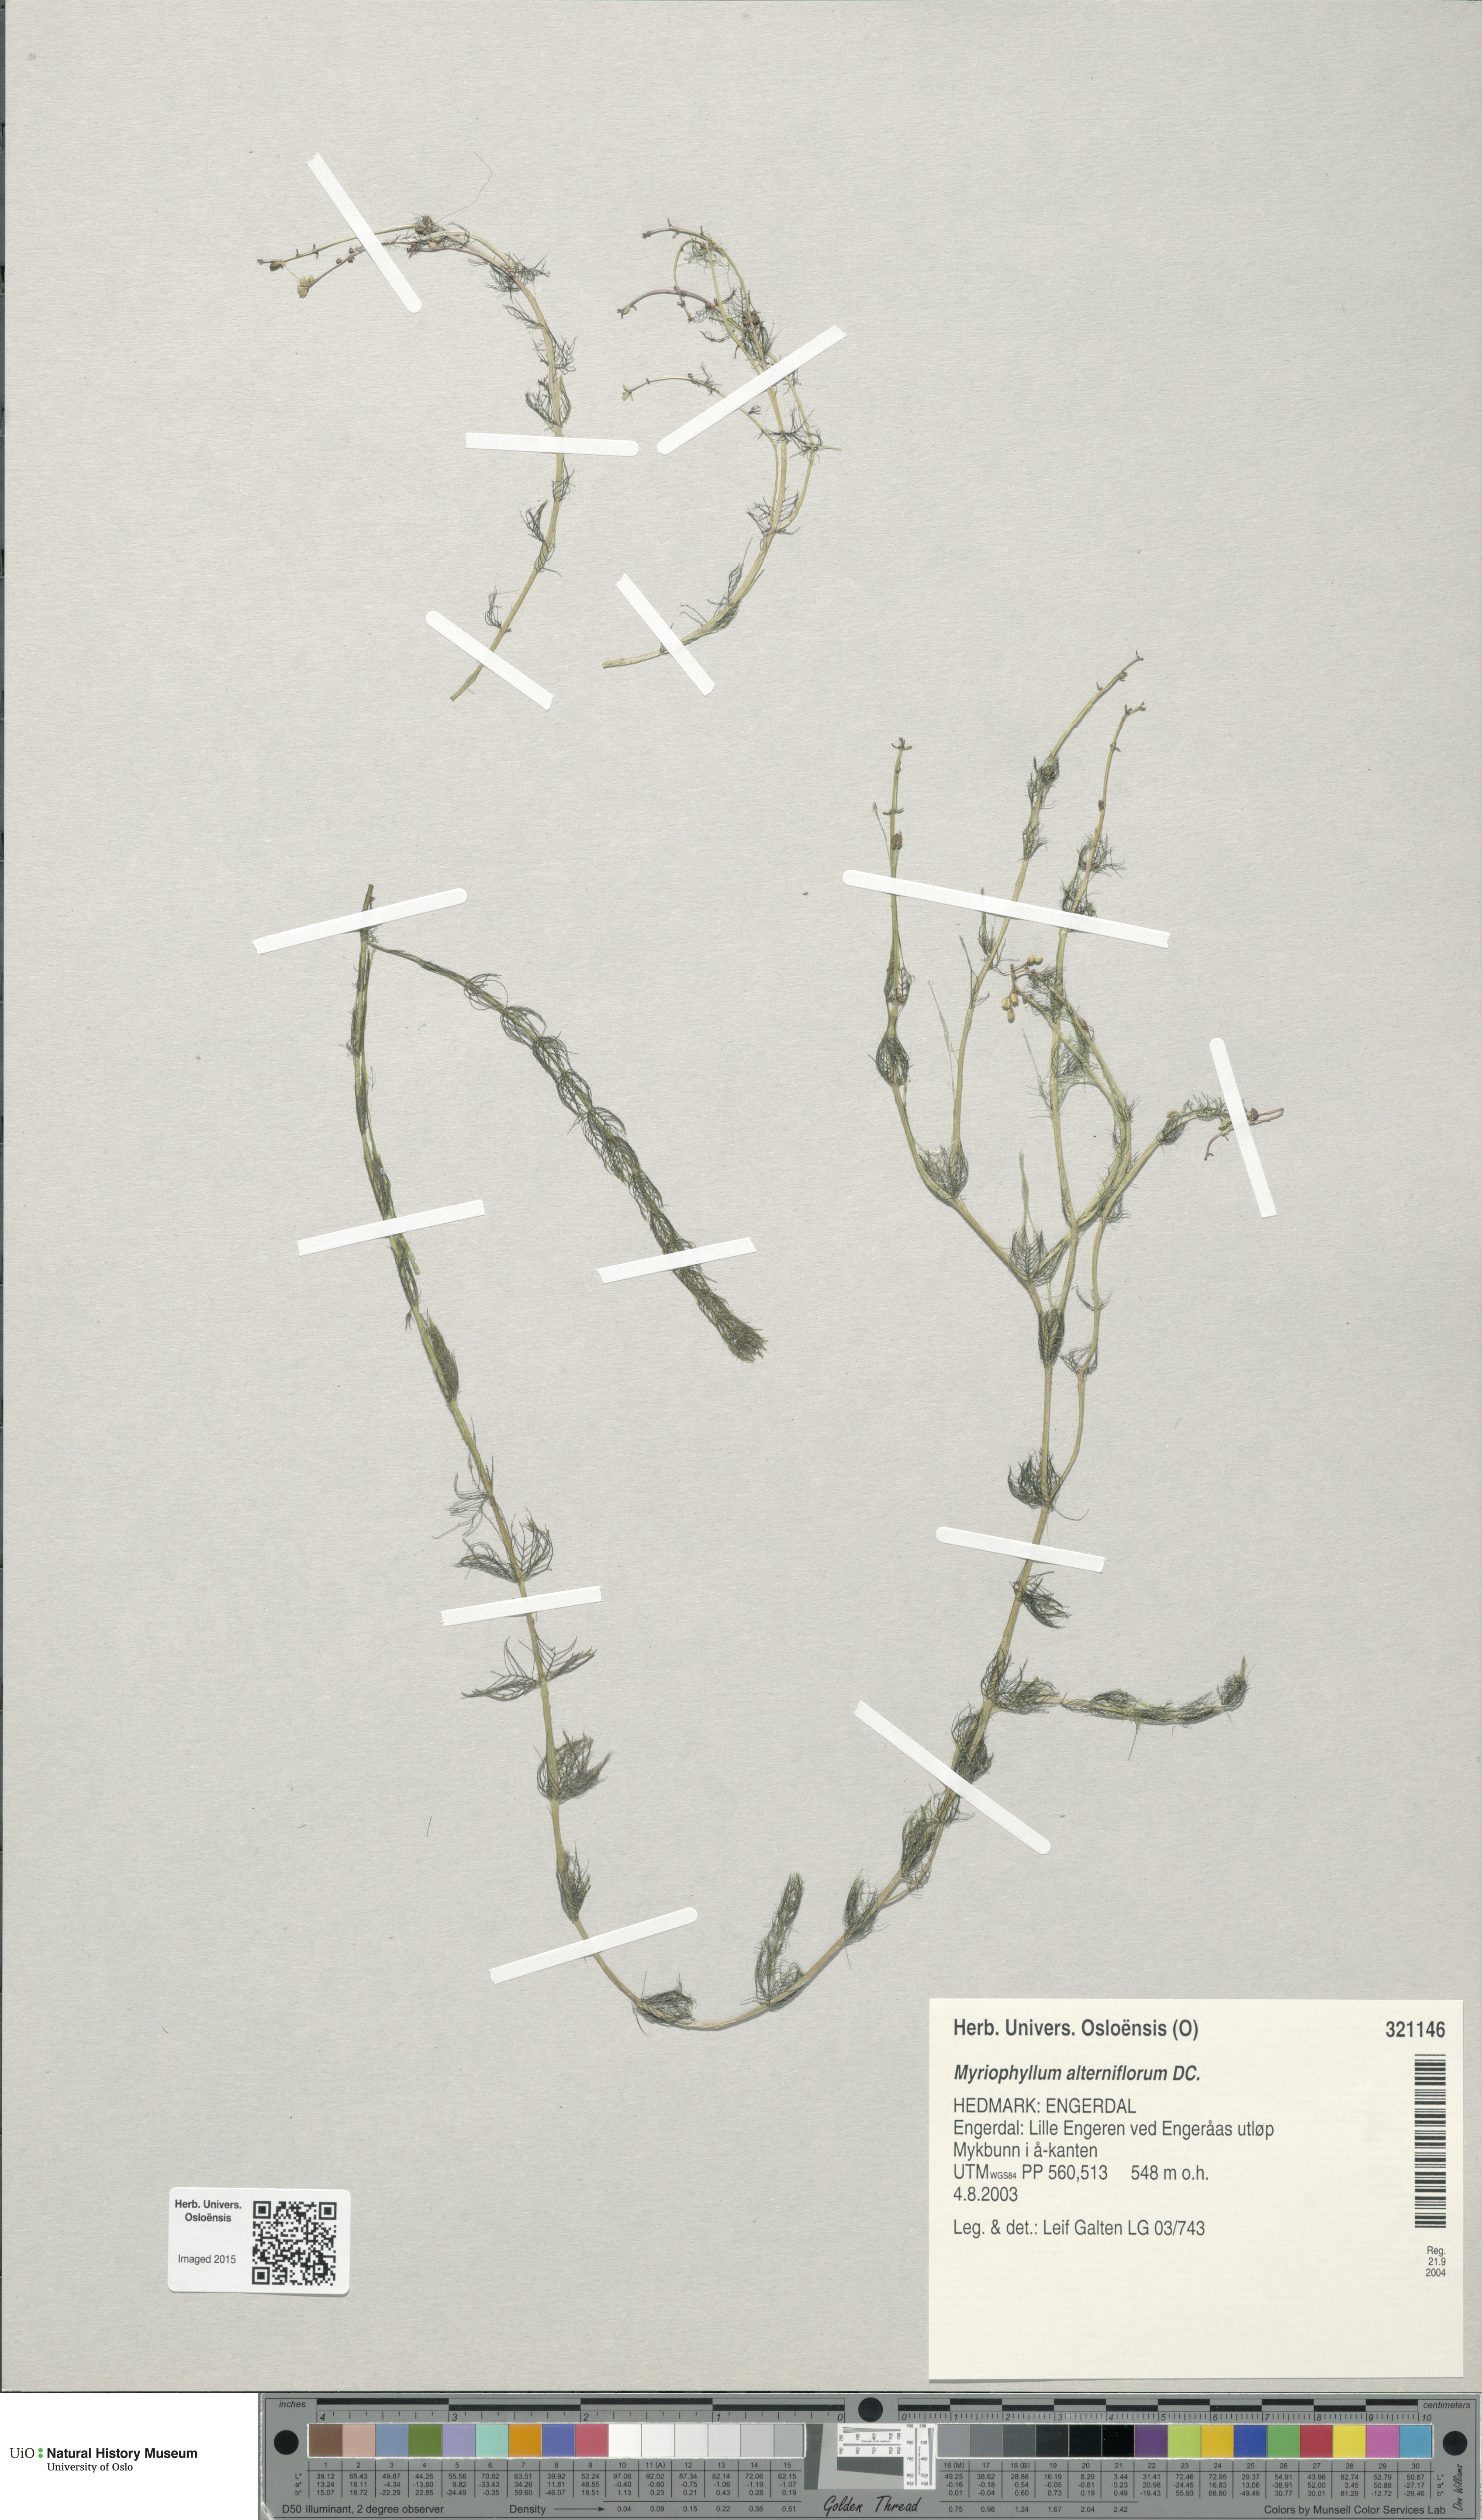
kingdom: Plantae
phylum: Tracheophyta
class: Magnoliopsida
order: Saxifragales
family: Haloragaceae
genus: Myriophyllum
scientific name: Myriophyllum alterniflorum
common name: Alternate water-milfoil
